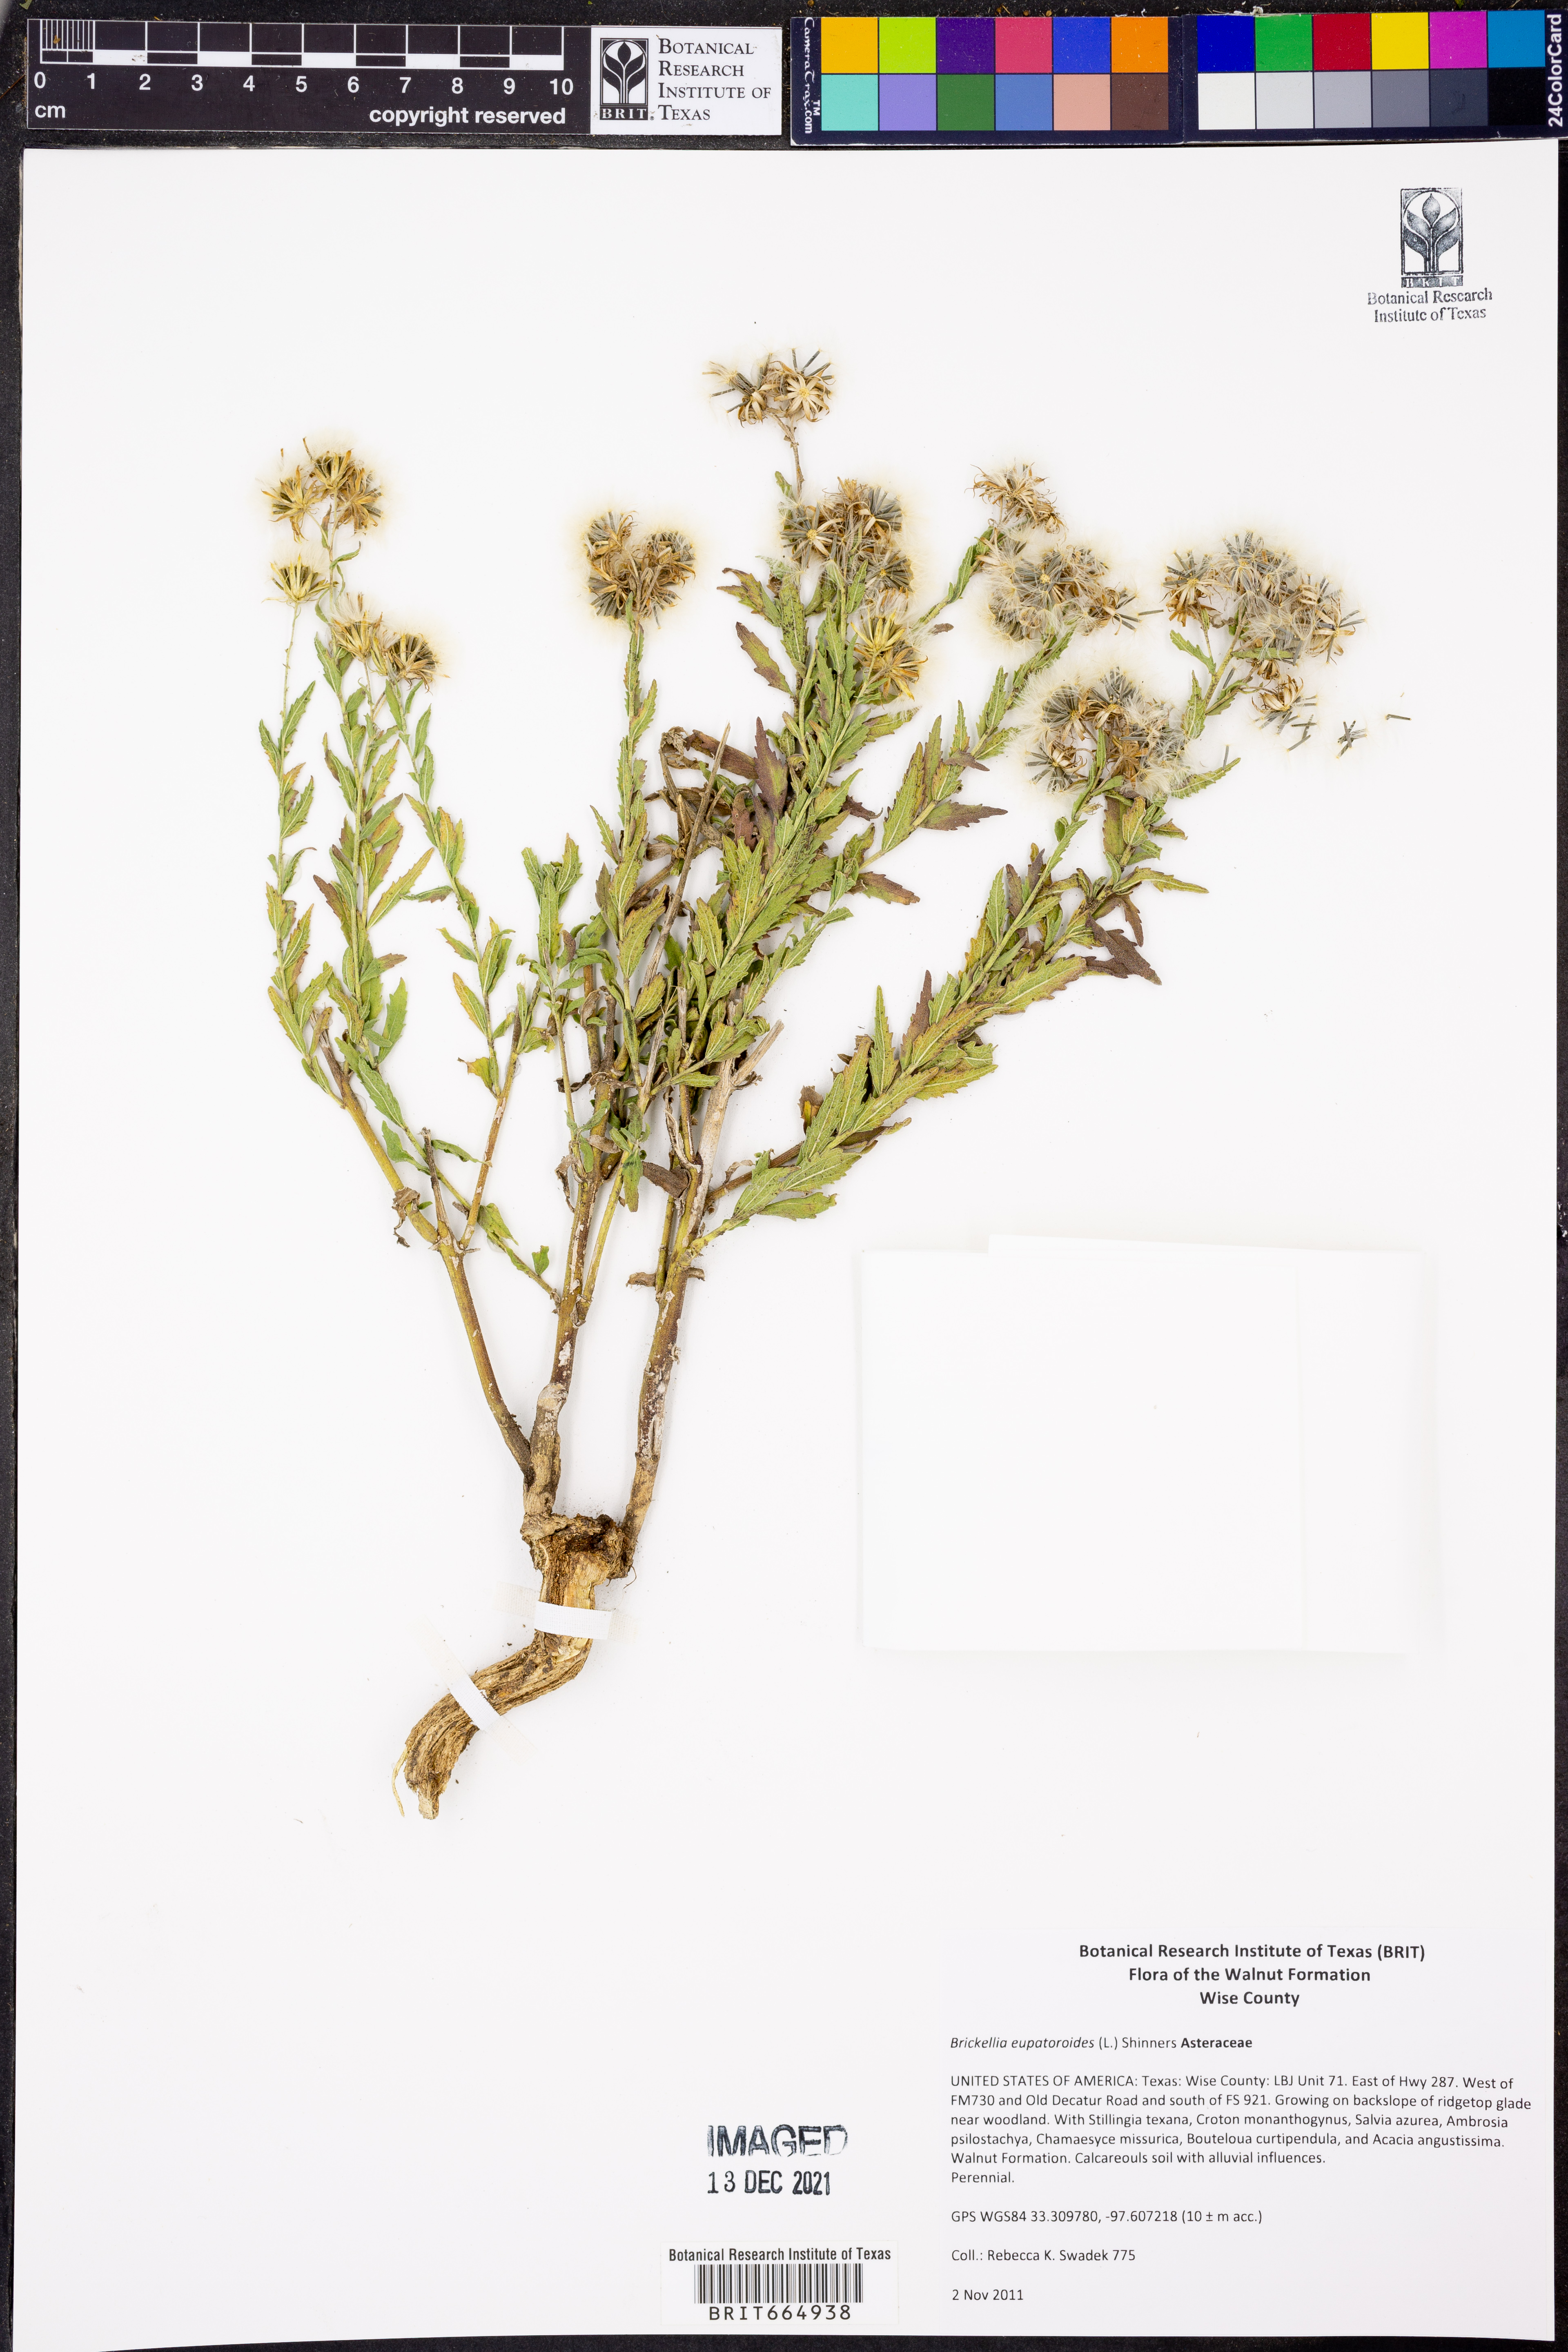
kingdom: Plantae
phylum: Tracheophyta
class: Magnoliopsida
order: Asterales
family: Asteraceae
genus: Brickellia
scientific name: Brickellia eupatorioides
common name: False boneset
